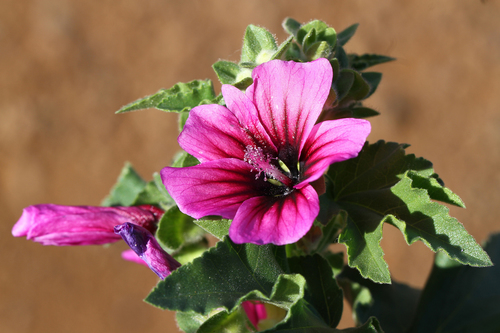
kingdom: Plantae
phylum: Tracheophyta
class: Magnoliopsida
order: Malvales
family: Malvaceae
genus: Malva
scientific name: Malva arborea
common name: Tree mallow
